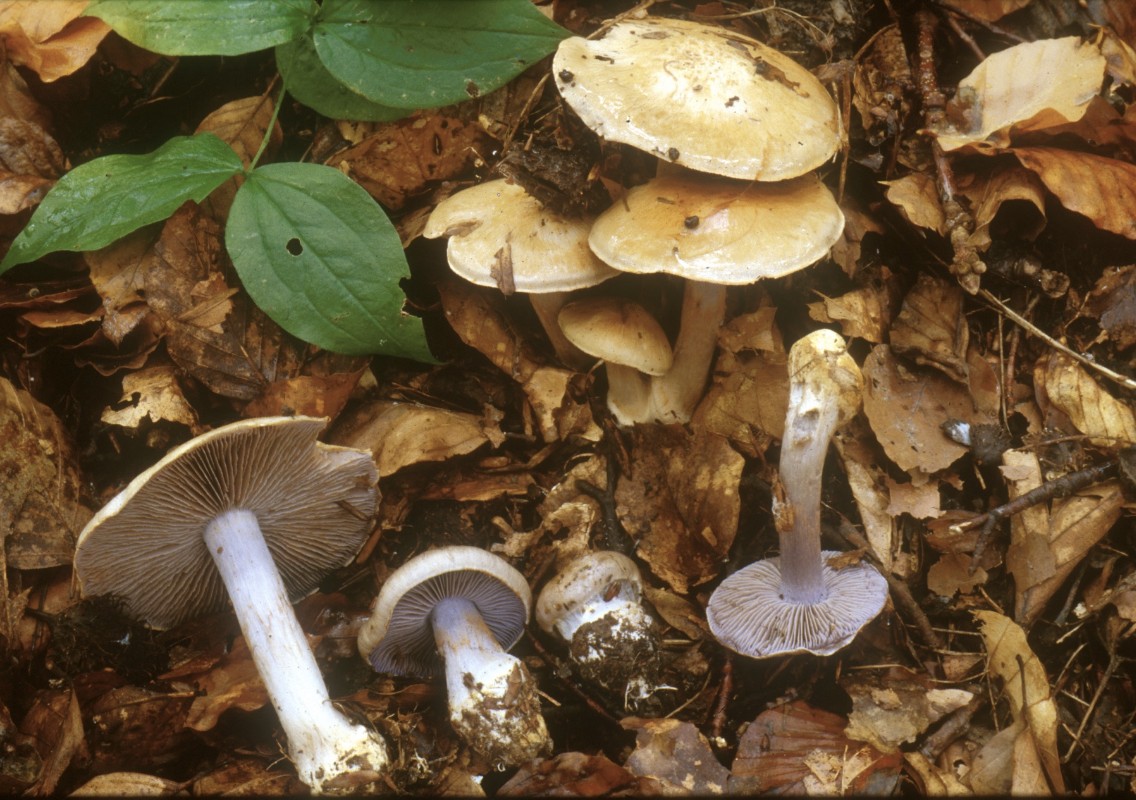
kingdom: Fungi
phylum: Basidiomycota
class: Agaricomycetes
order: Agaricales
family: Cortinariaceae
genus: Cortinarius
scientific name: Cortinarius dionysae
